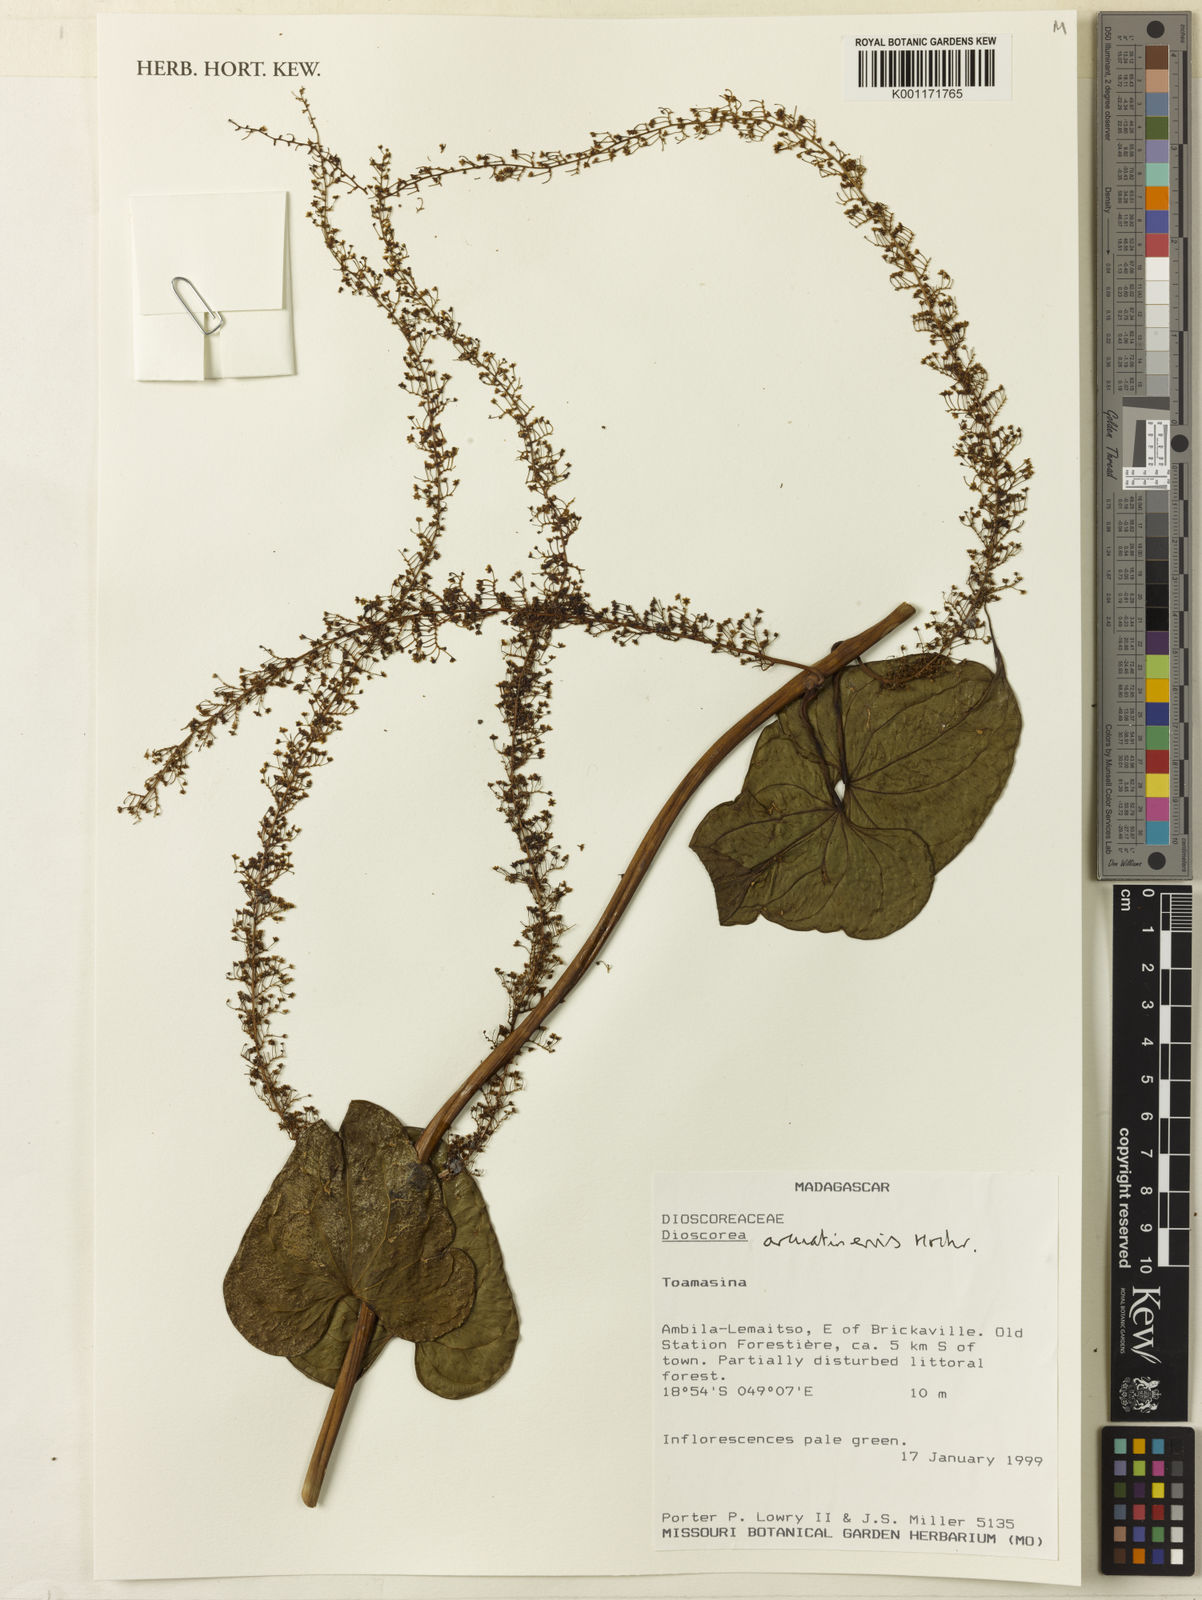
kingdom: Plantae
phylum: Tracheophyta
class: Liliopsida
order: Dioscoreales
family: Dioscoreaceae
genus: Dioscorea
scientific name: Dioscorea arcuatinervis
